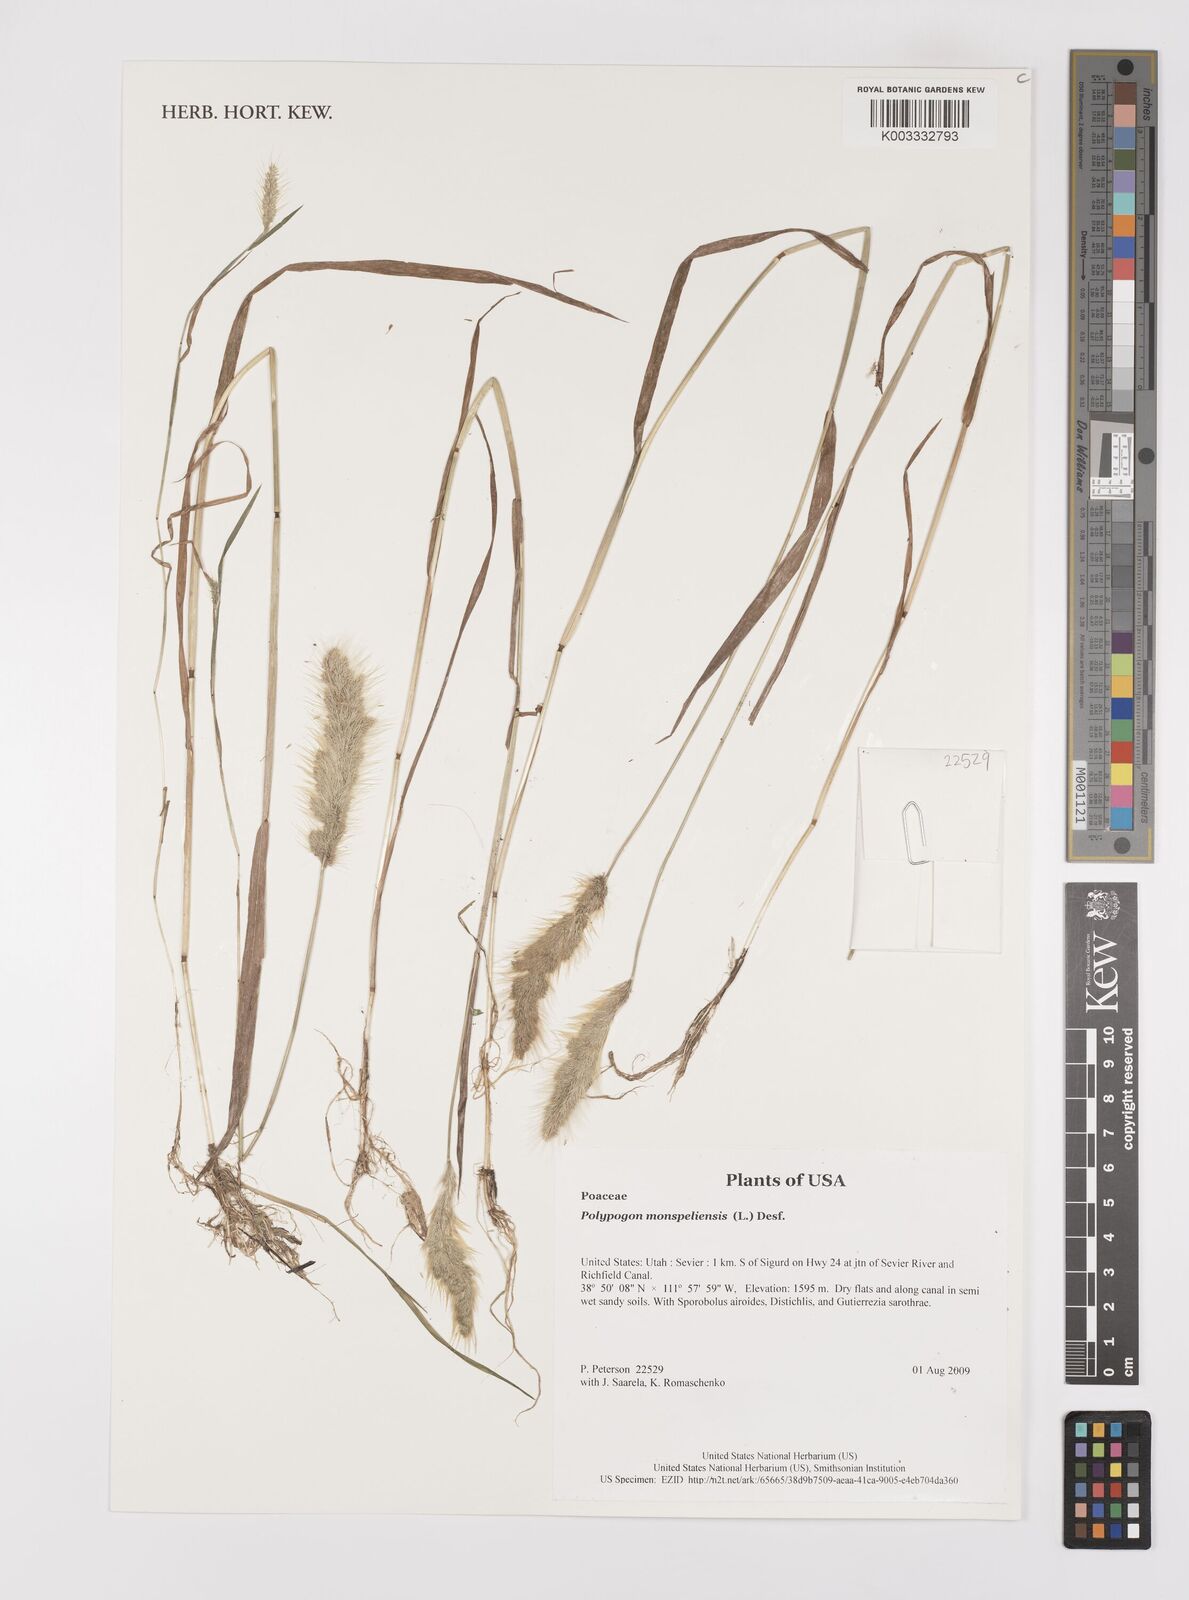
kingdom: Plantae
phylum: Tracheophyta
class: Liliopsida
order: Poales
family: Poaceae
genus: Polypogon
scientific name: Polypogon monspeliensis
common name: Annual rabbitsfoot grass
